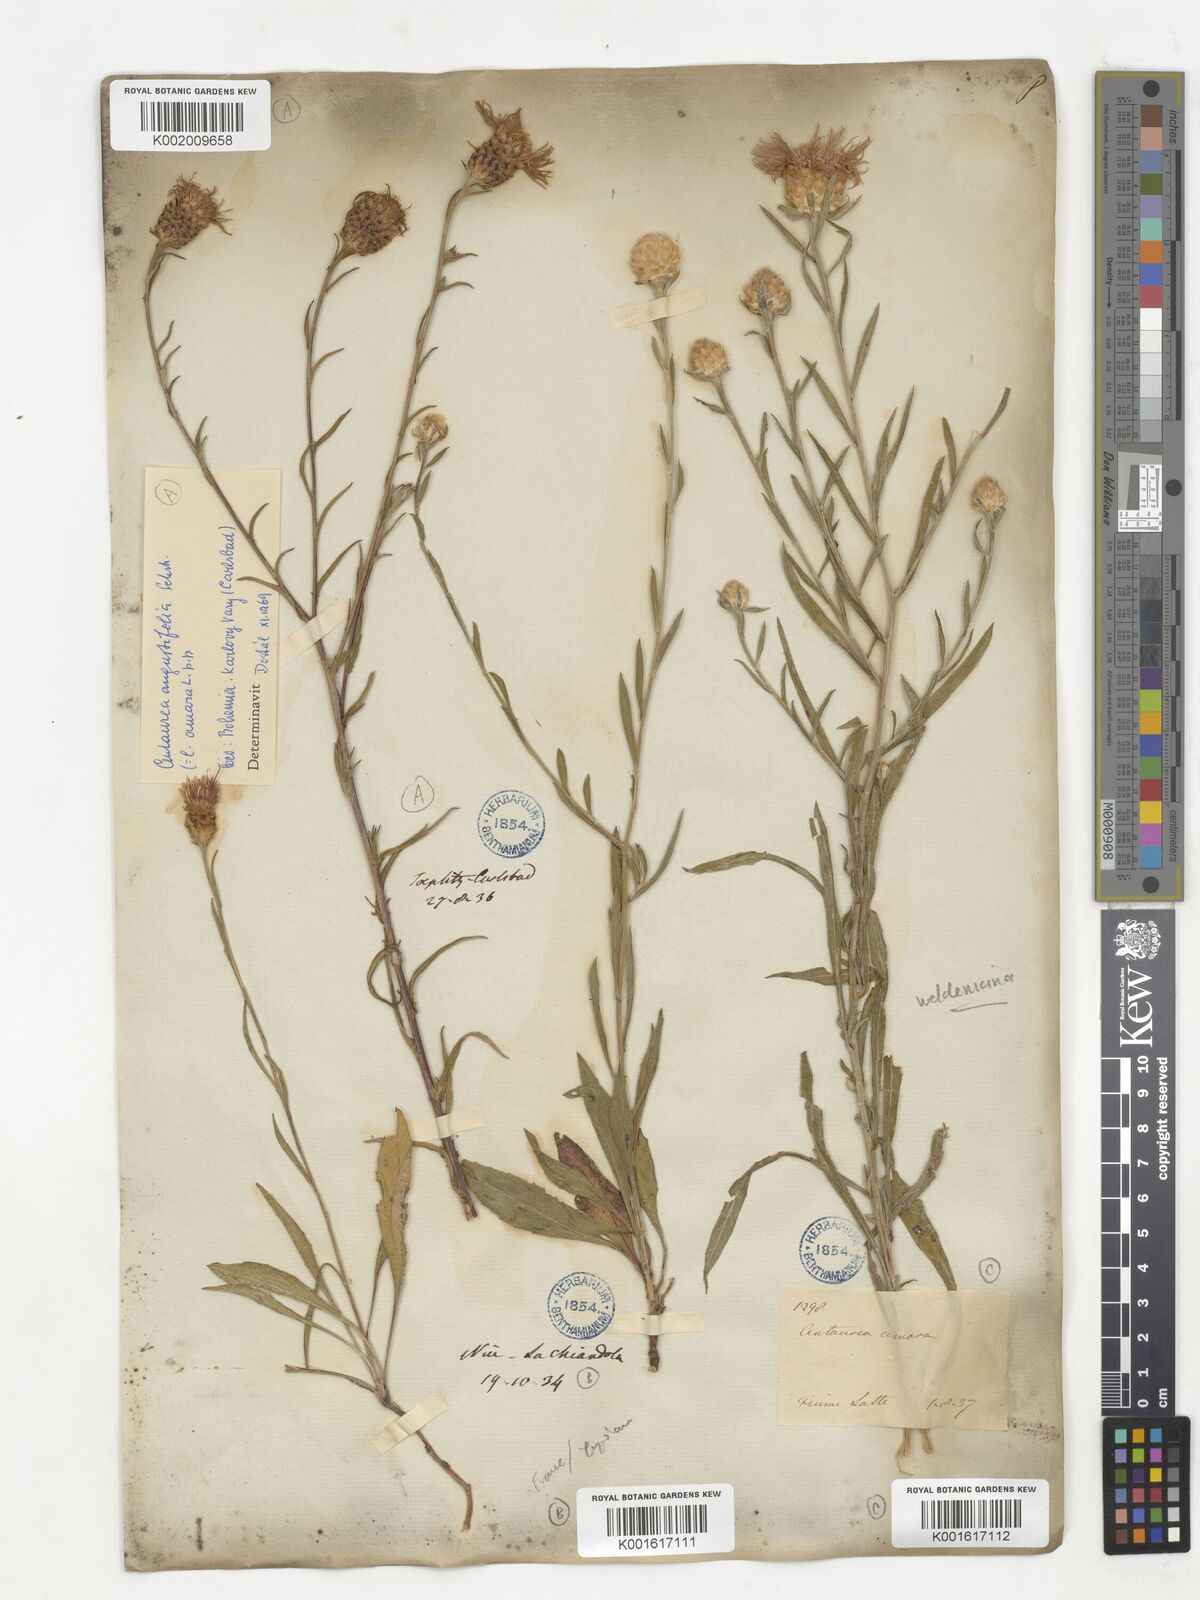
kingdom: Plantae
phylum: Tracheophyta
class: Magnoliopsida
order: Asterales
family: Asteraceae
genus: Centaurea
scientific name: Centaurea
